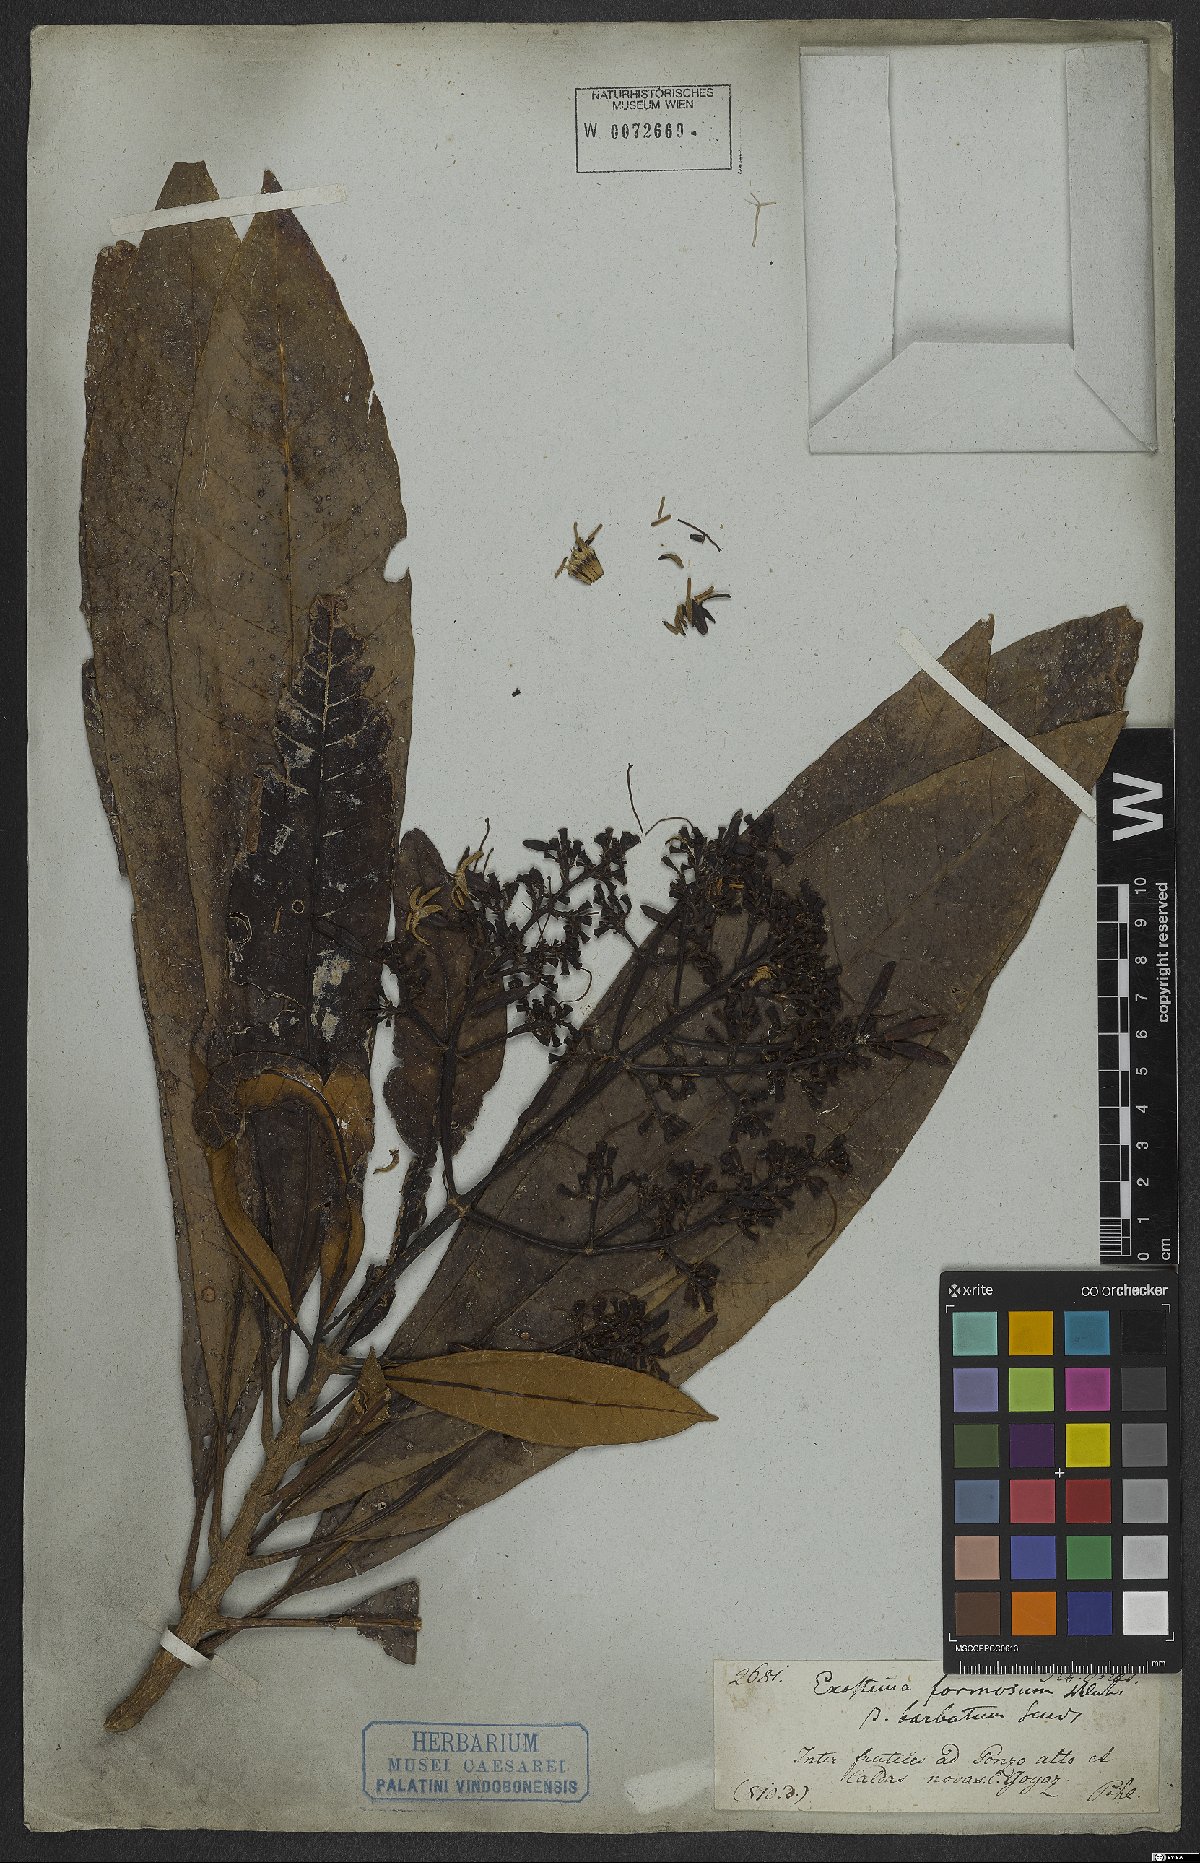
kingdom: Plantae
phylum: Tracheophyta
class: Magnoliopsida
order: Gentianales
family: Rubiaceae
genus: Rustia
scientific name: Rustia formosa
